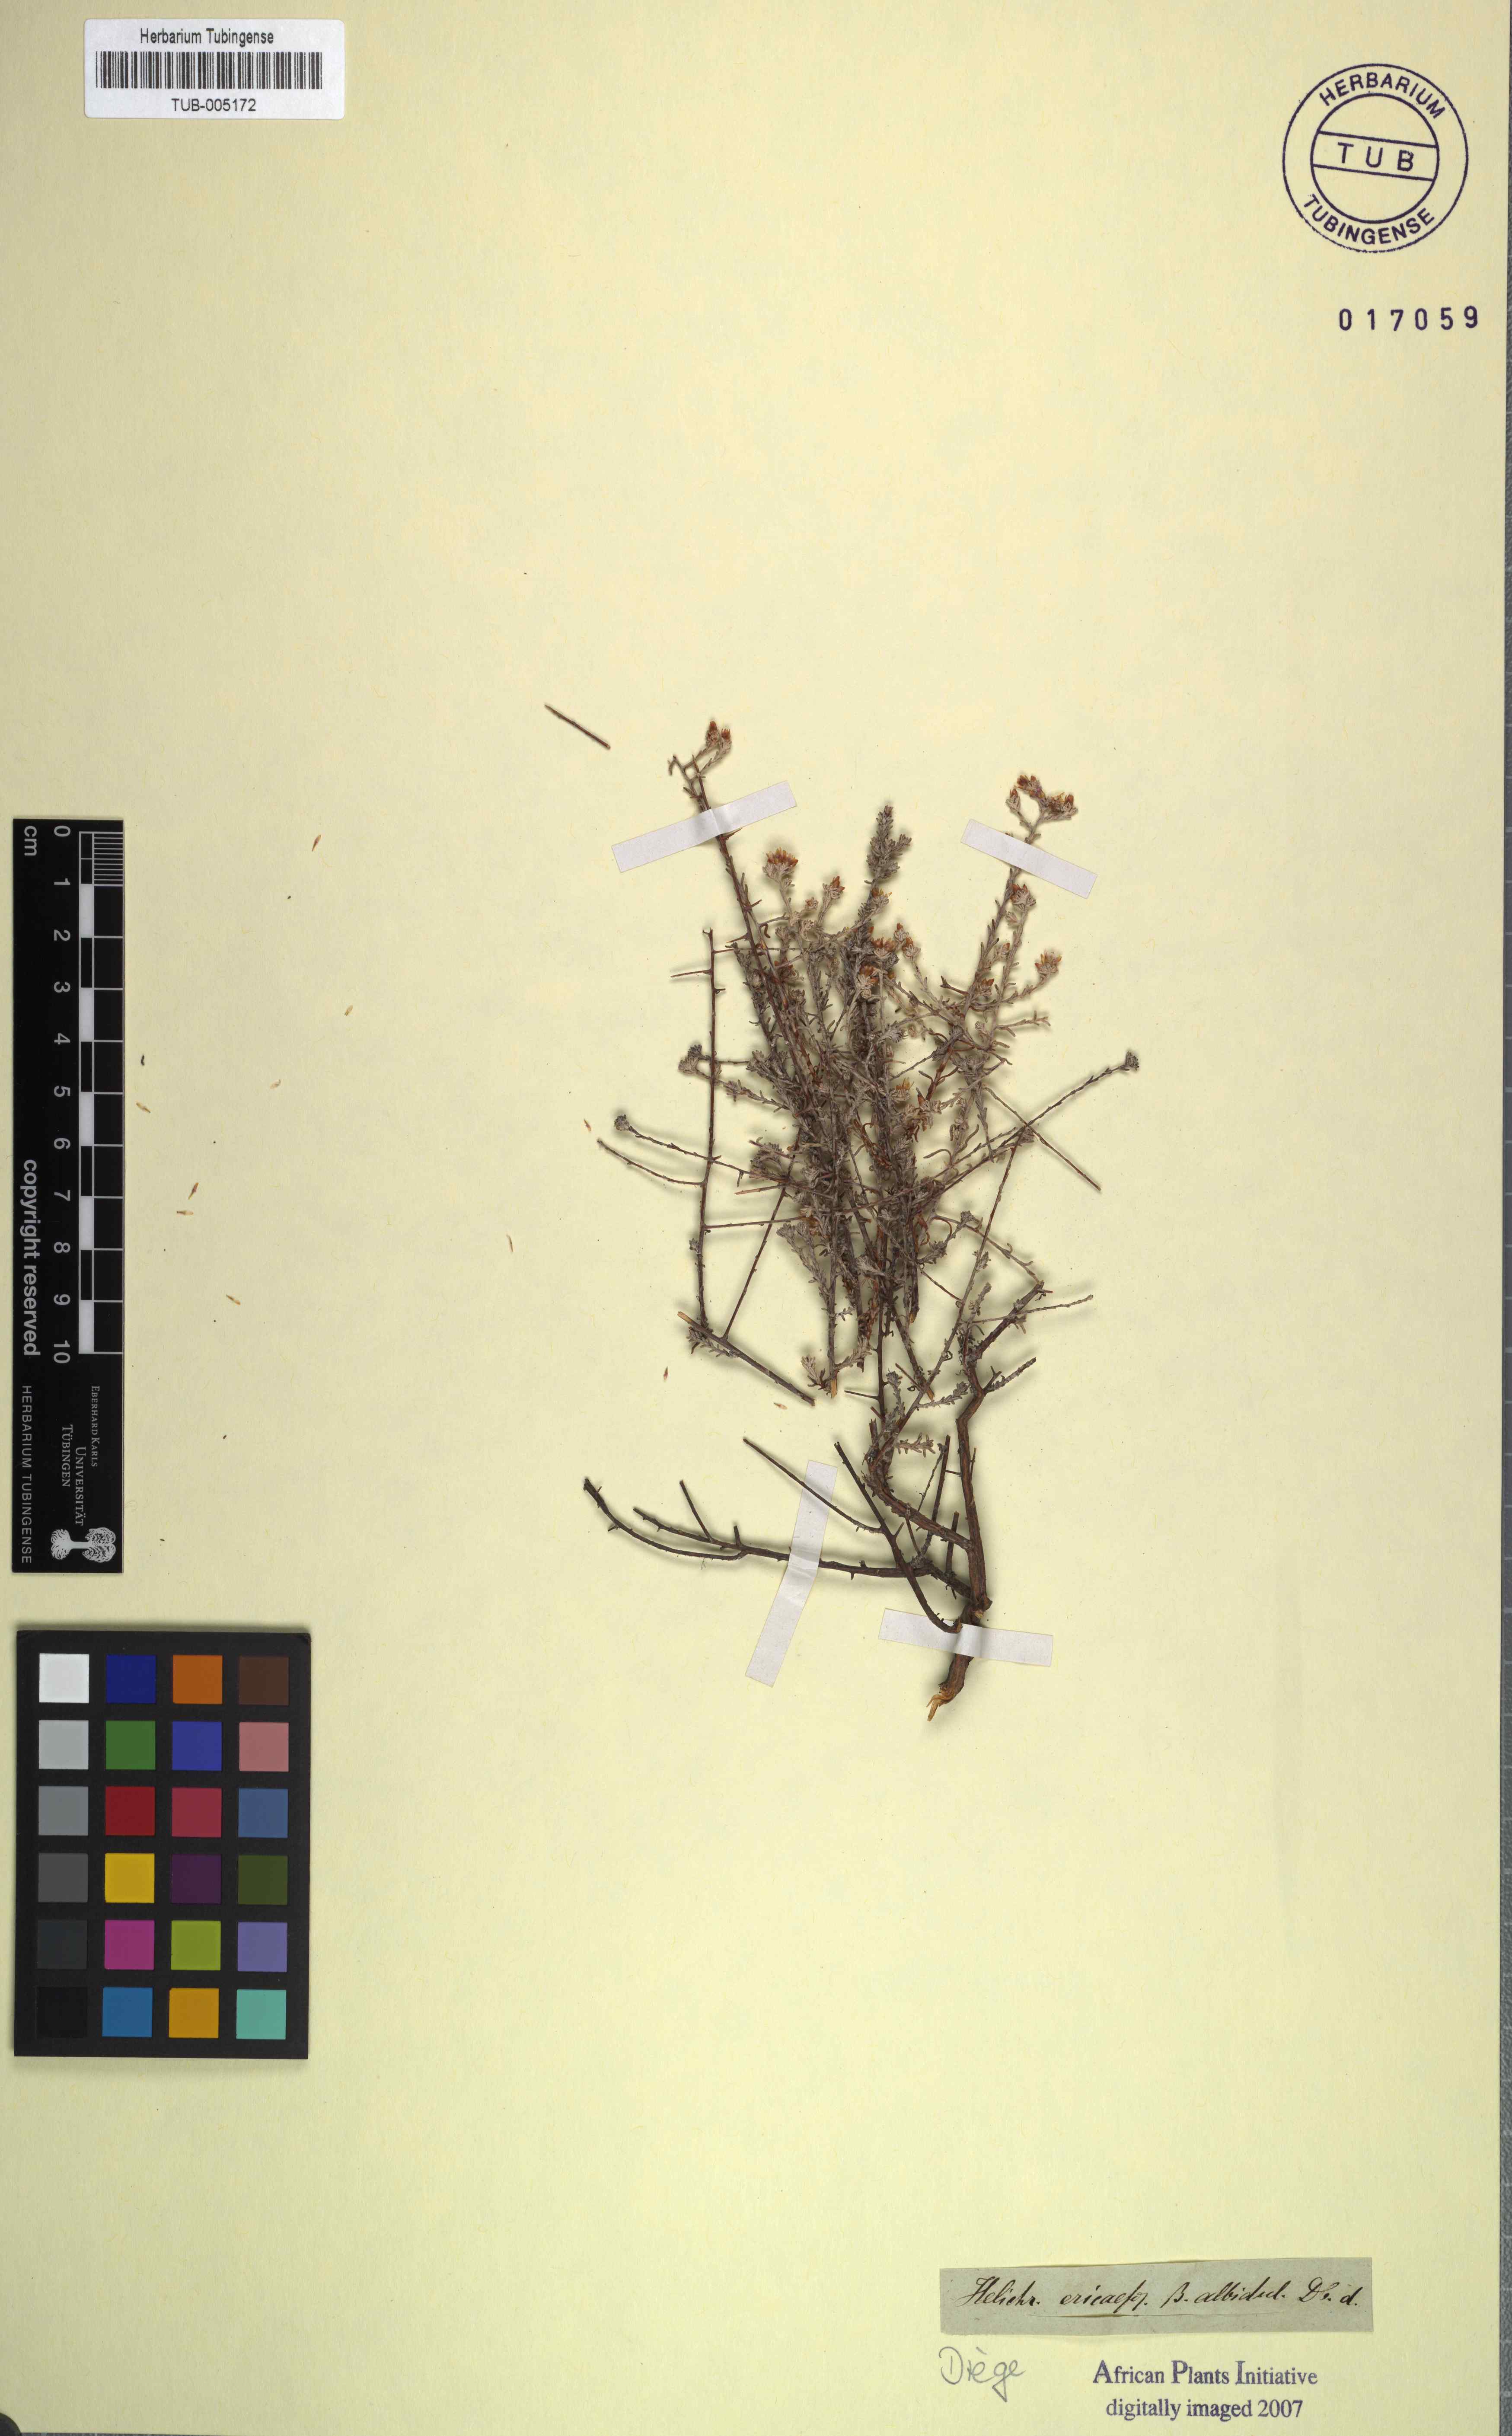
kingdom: Plantae
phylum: Tracheophyta
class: Magnoliopsida
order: Asterales
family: Asteraceae
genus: Helichrysum
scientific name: Helichrysum asperum
